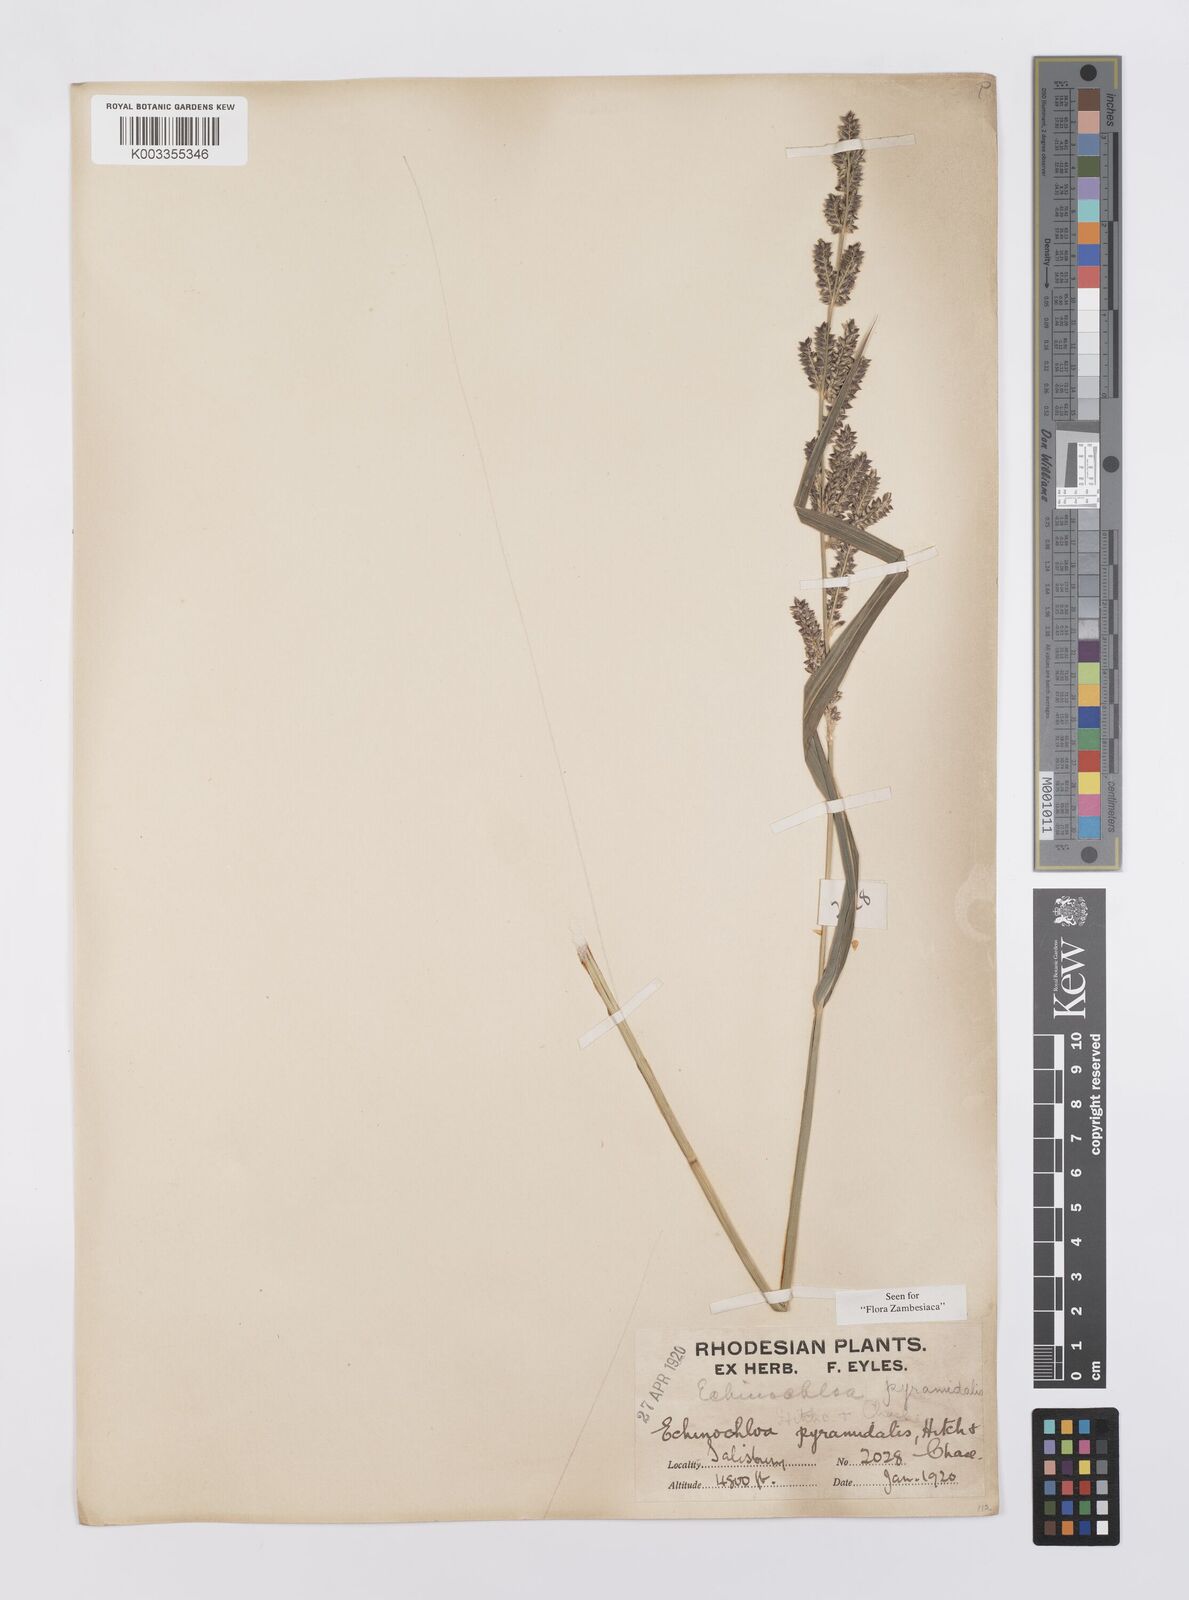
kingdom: Plantae
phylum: Tracheophyta
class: Liliopsida
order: Poales
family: Poaceae
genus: Echinochloa
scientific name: Echinochloa pyramidalis
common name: Antelope grass
